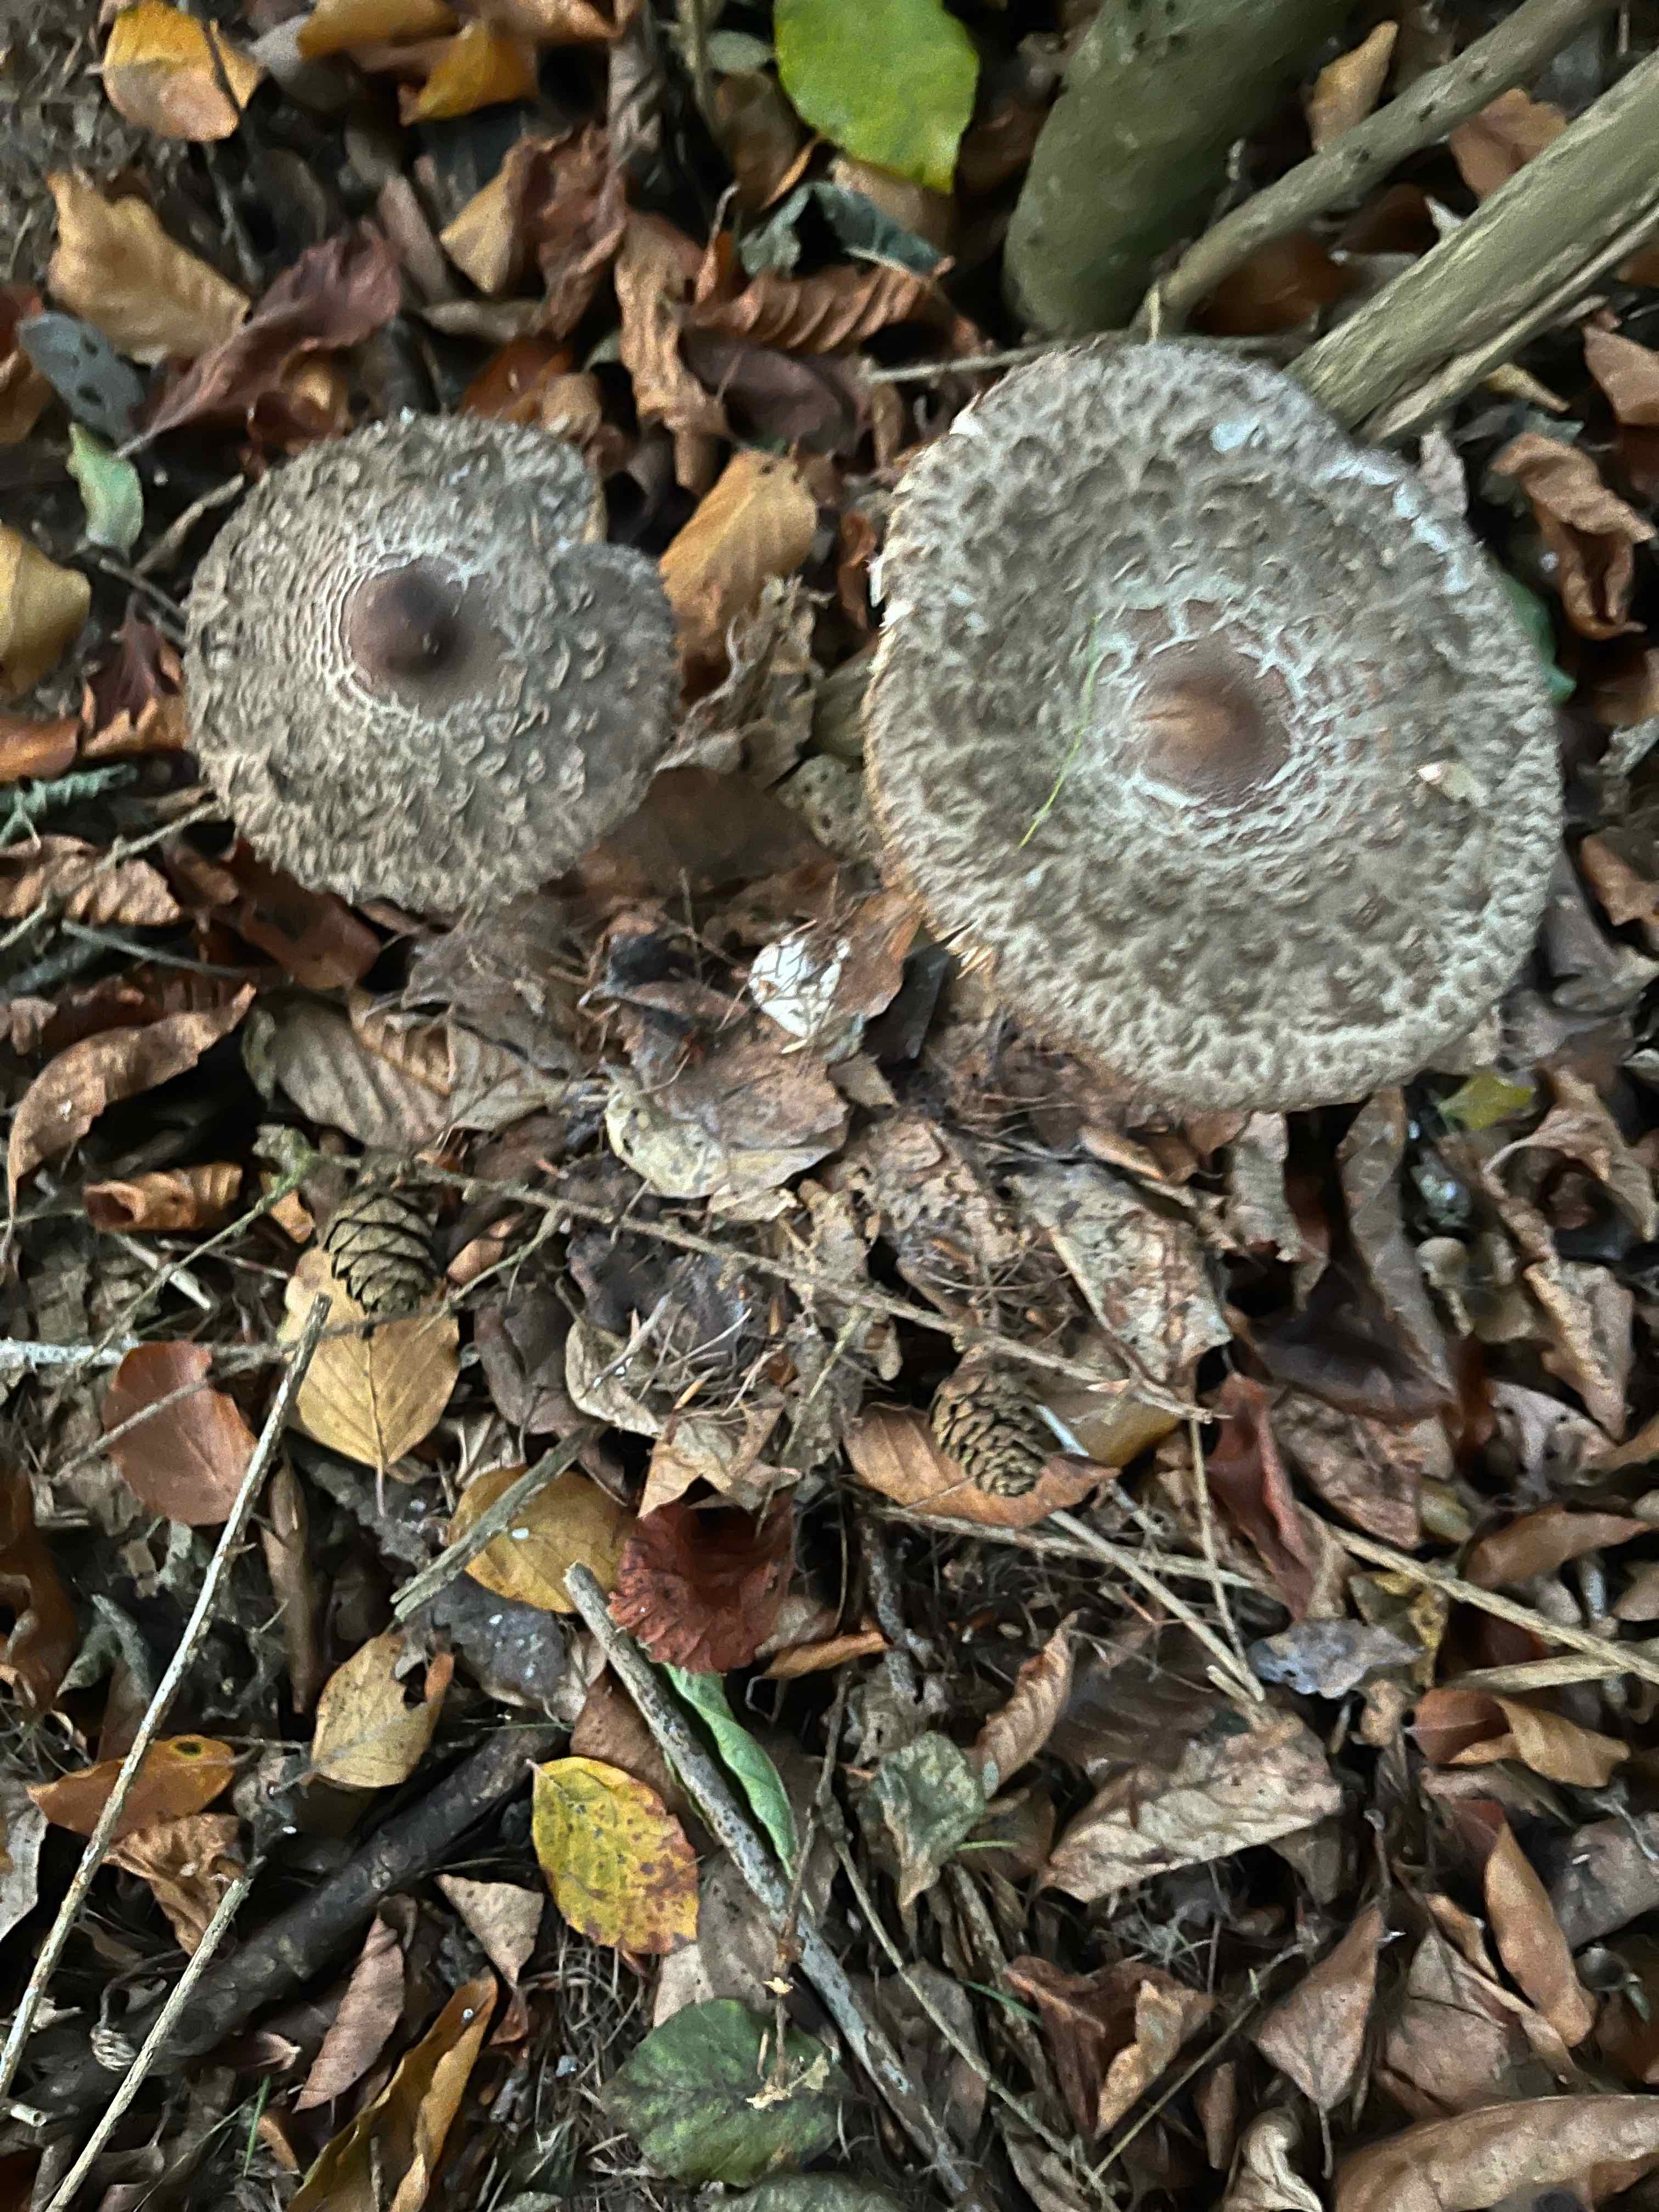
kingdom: Fungi
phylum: Basidiomycota
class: Agaricomycetes
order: Agaricales
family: Agaricaceae
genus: Chlorophyllum
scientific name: Chlorophyllum olivieri
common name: almindelig rabarberhat
